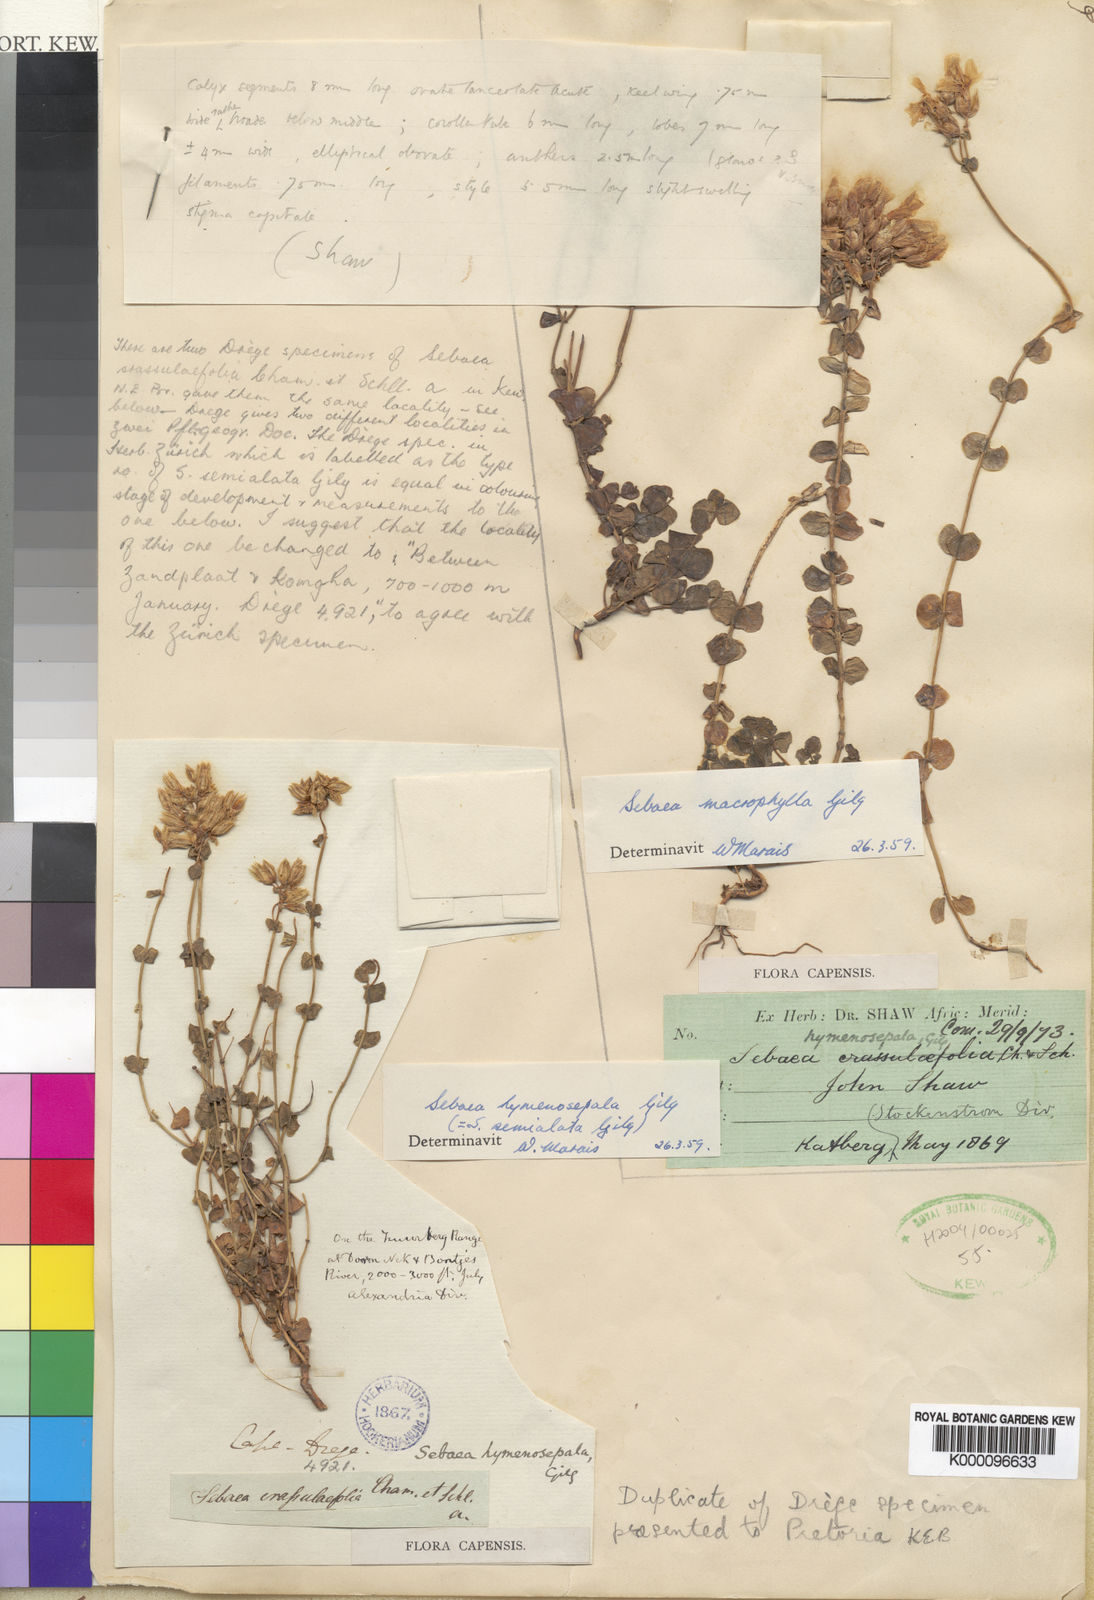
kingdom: Plantae
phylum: Tracheophyta
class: Magnoliopsida
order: Gentianales
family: Gentianaceae
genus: Sebaea
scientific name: Sebaea hymenosepala
